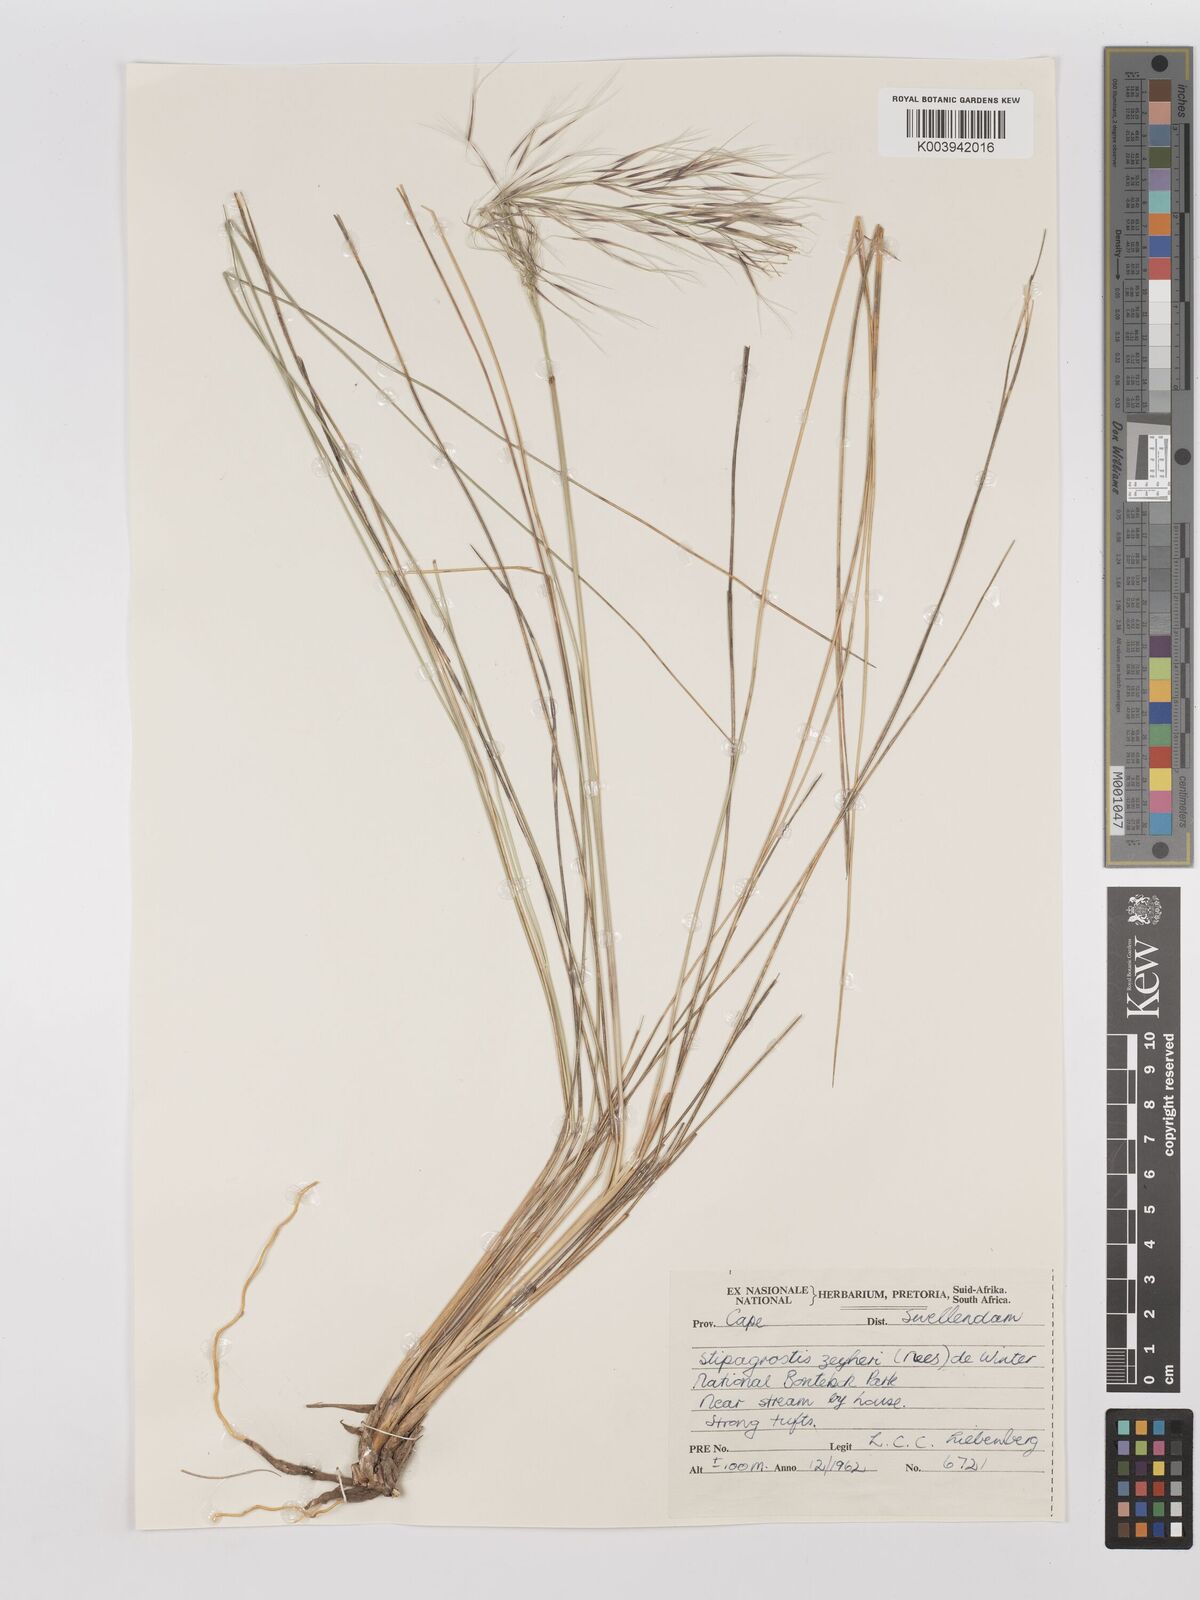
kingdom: Plantae
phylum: Tracheophyta
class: Liliopsida
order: Poales
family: Poaceae
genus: Stipagrostis
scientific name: Stipagrostis zeyheri
